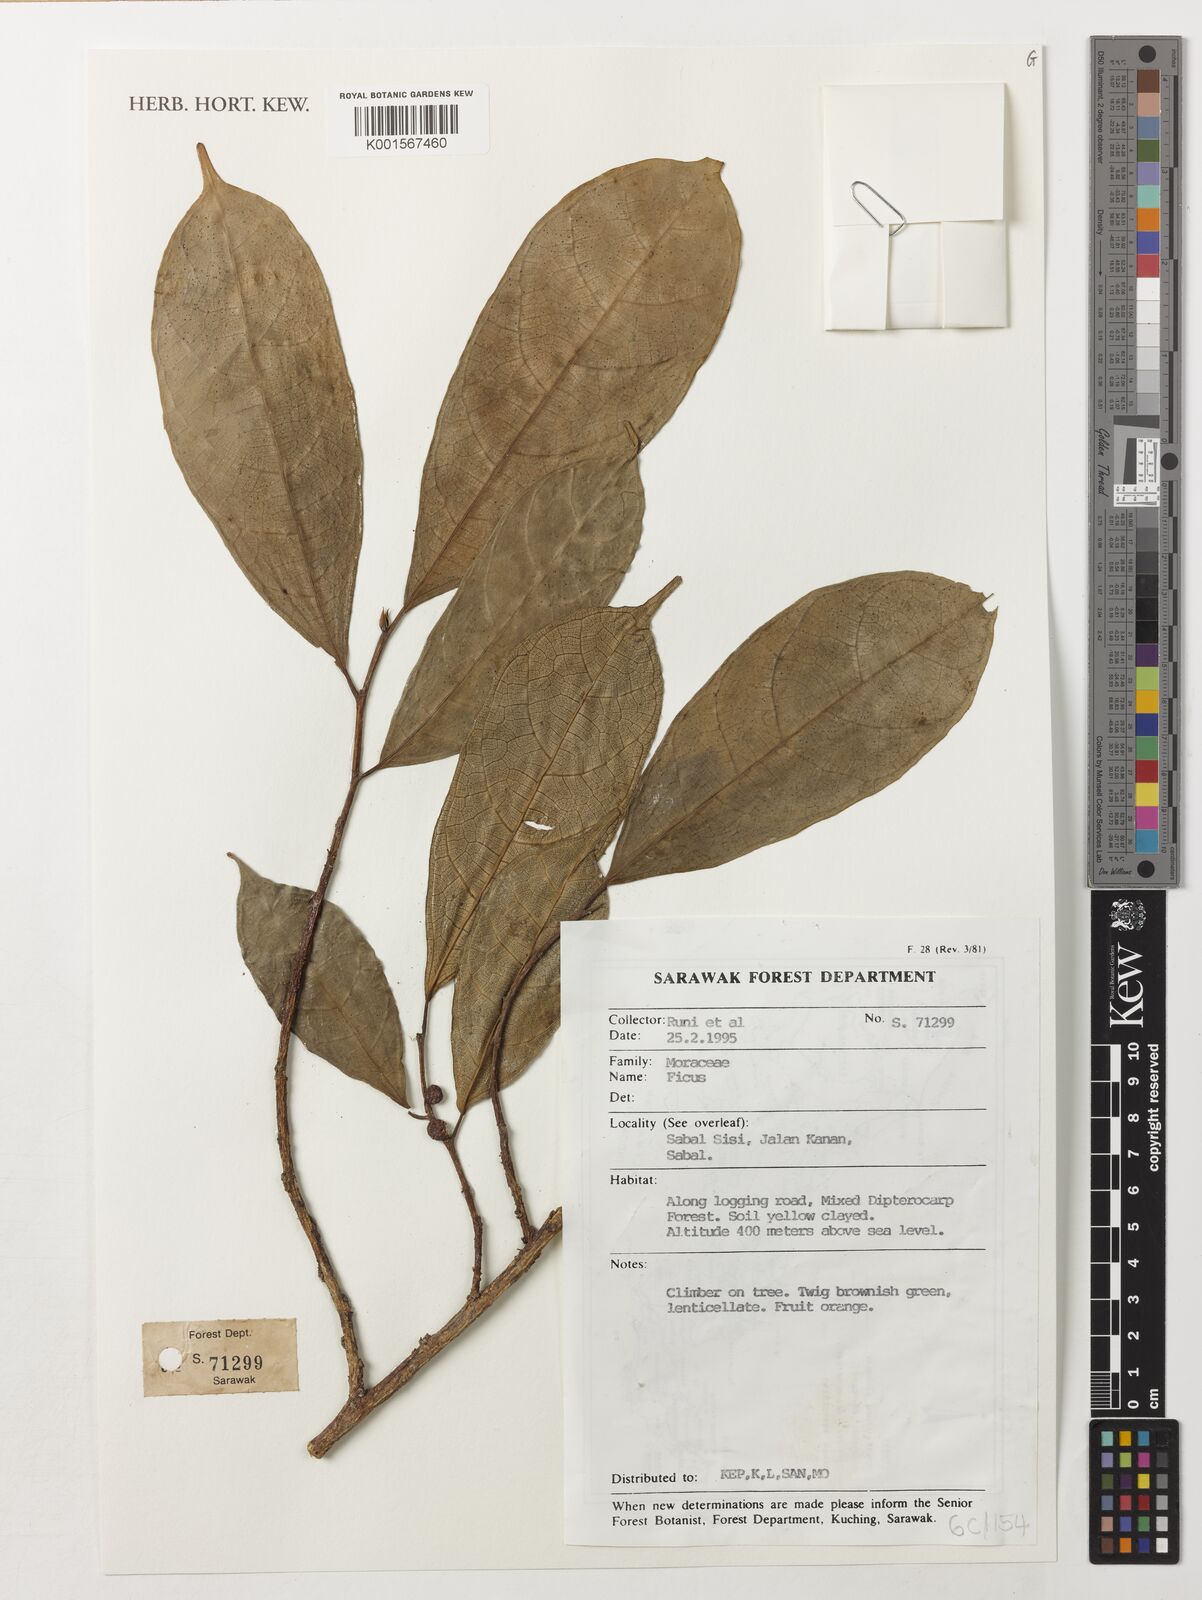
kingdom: Plantae
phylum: Tracheophyta
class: Magnoliopsida
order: Rosales
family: Moraceae
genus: Ficus
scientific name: Ficus
